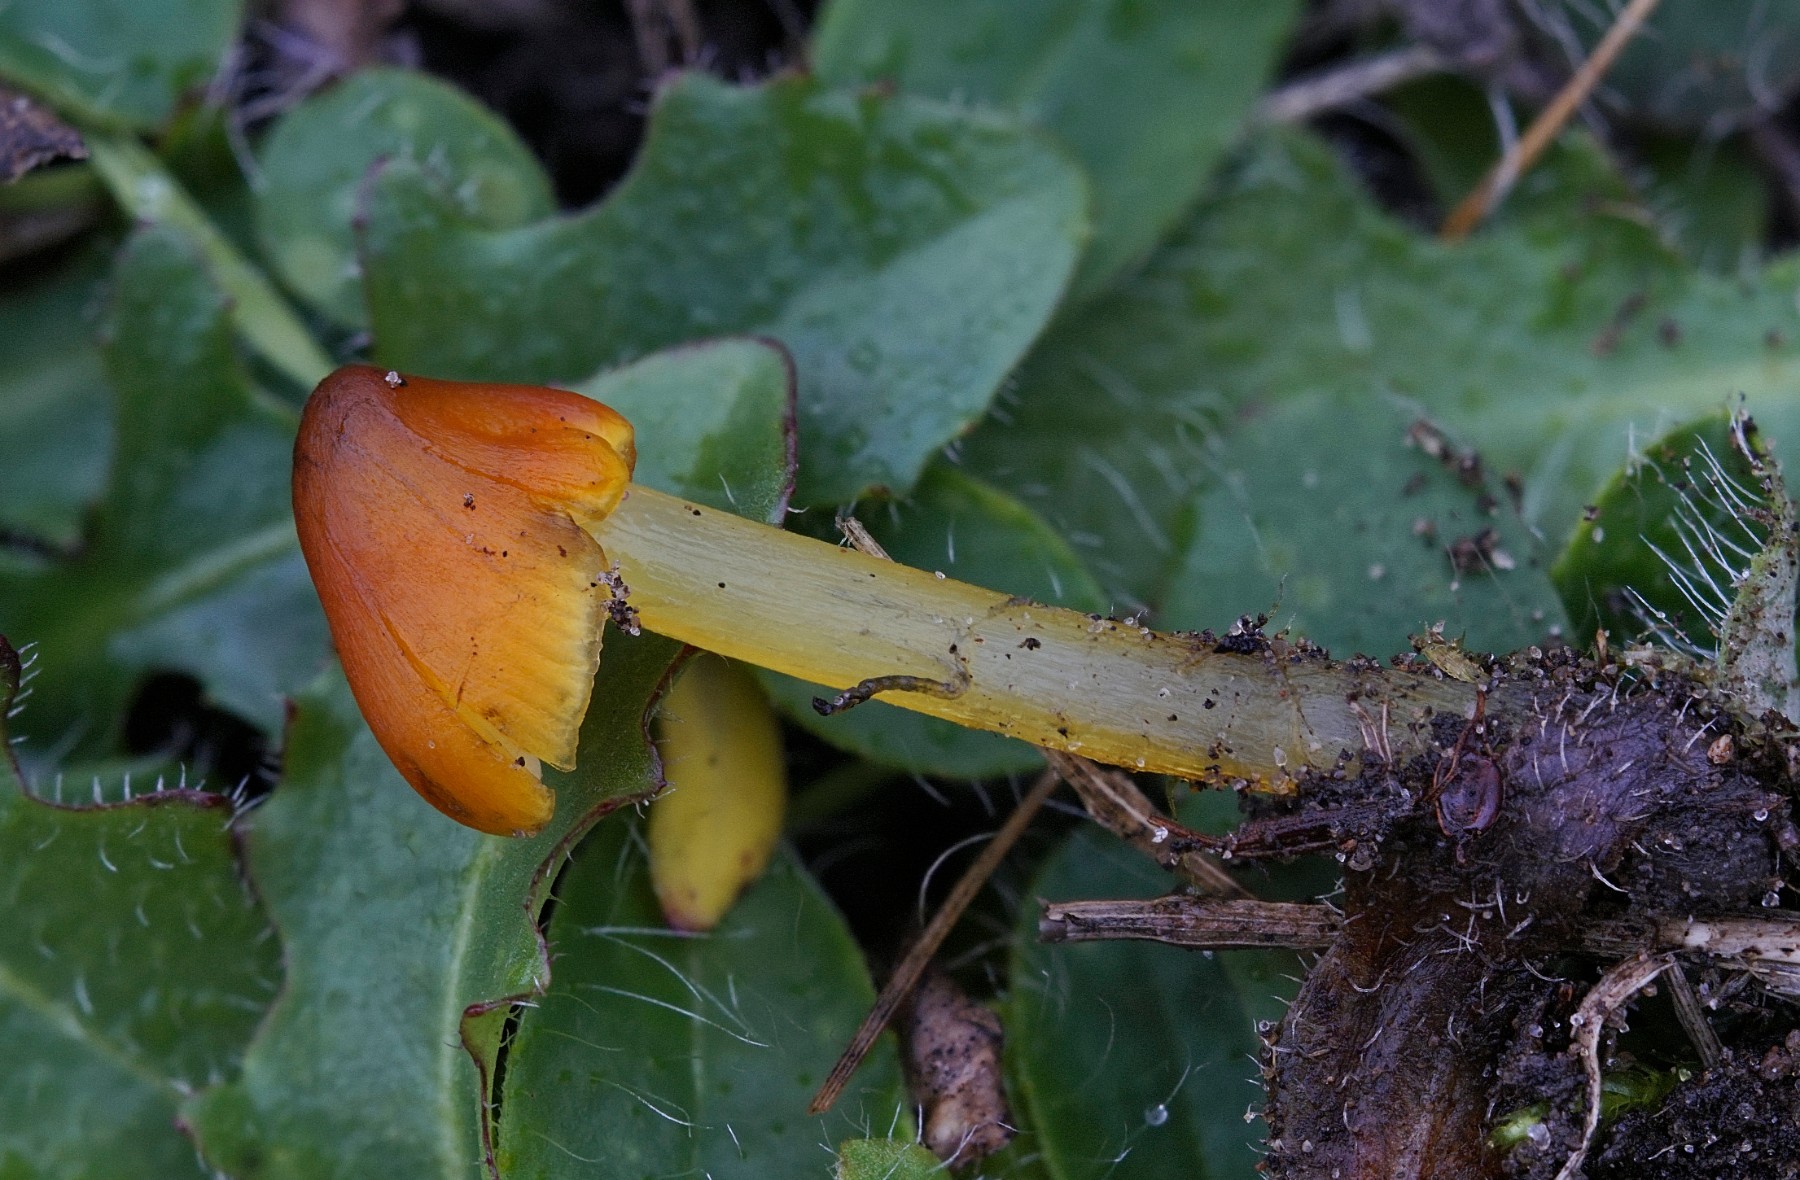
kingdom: Fungi
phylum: Basidiomycota
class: Agaricomycetes
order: Agaricales
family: Hygrophoraceae
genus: Hygrocybe
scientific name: Hygrocybe conica
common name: kegle-vokshat
